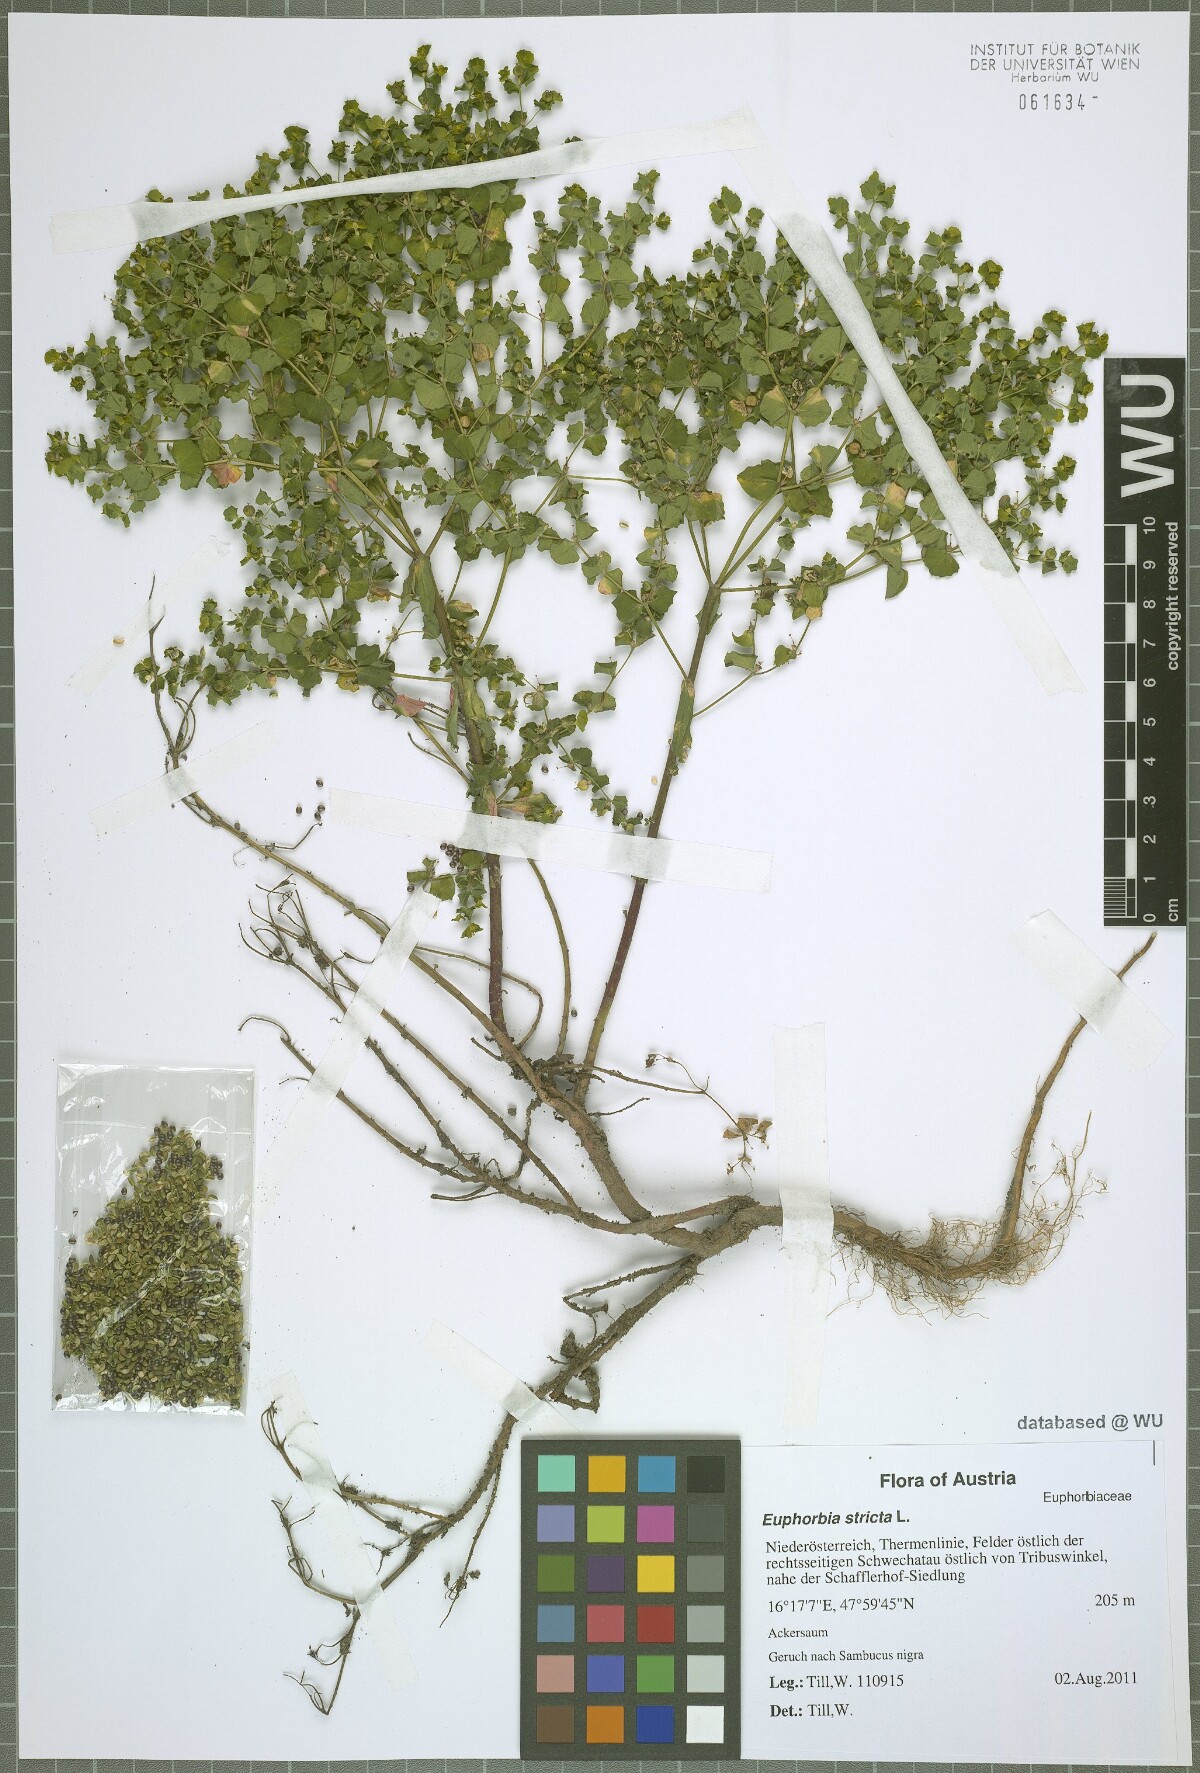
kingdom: Plantae
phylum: Tracheophyta
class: Magnoliopsida
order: Malpighiales
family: Euphorbiaceae
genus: Euphorbia
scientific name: Euphorbia stricta
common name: Upright spurge
